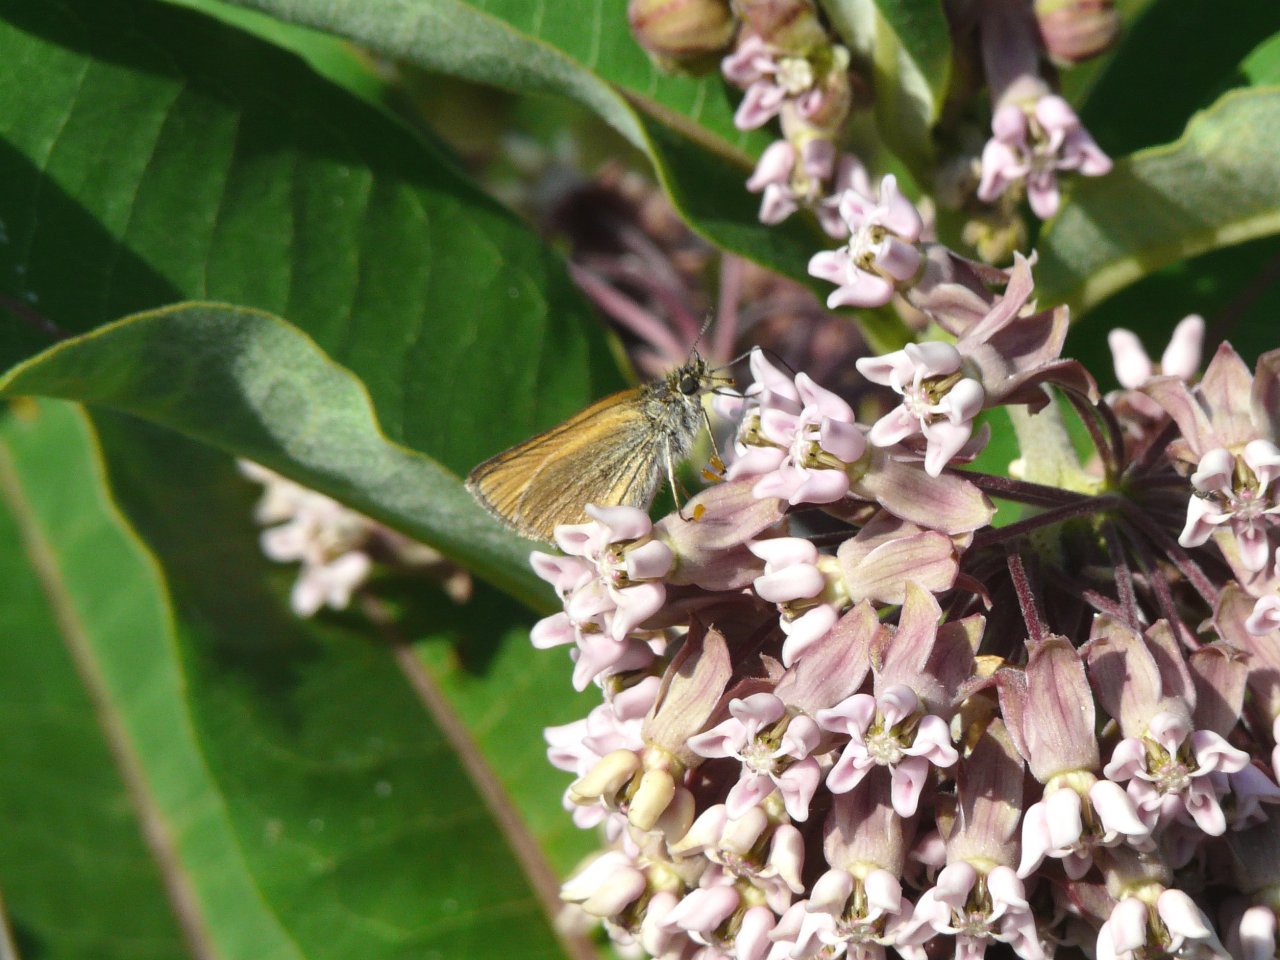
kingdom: Animalia
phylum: Arthropoda
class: Insecta
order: Lepidoptera
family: Hesperiidae
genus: Thymelicus
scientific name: Thymelicus lineola
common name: European Skipper
